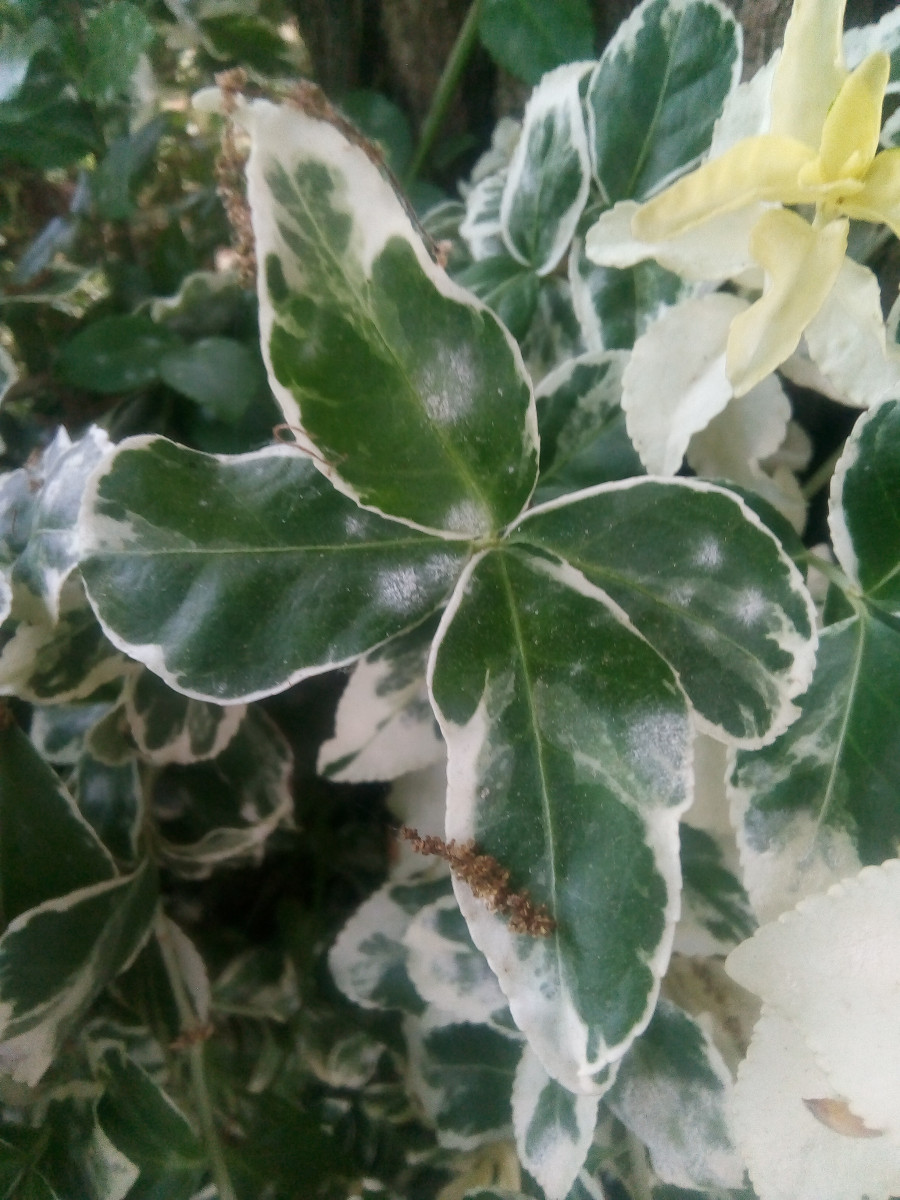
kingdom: Fungi
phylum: Ascomycota
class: Leotiomycetes
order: Helotiales
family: Erysiphaceae
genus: Erysiphe
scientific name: Erysiphe euonymicola
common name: Spindletree mildew
